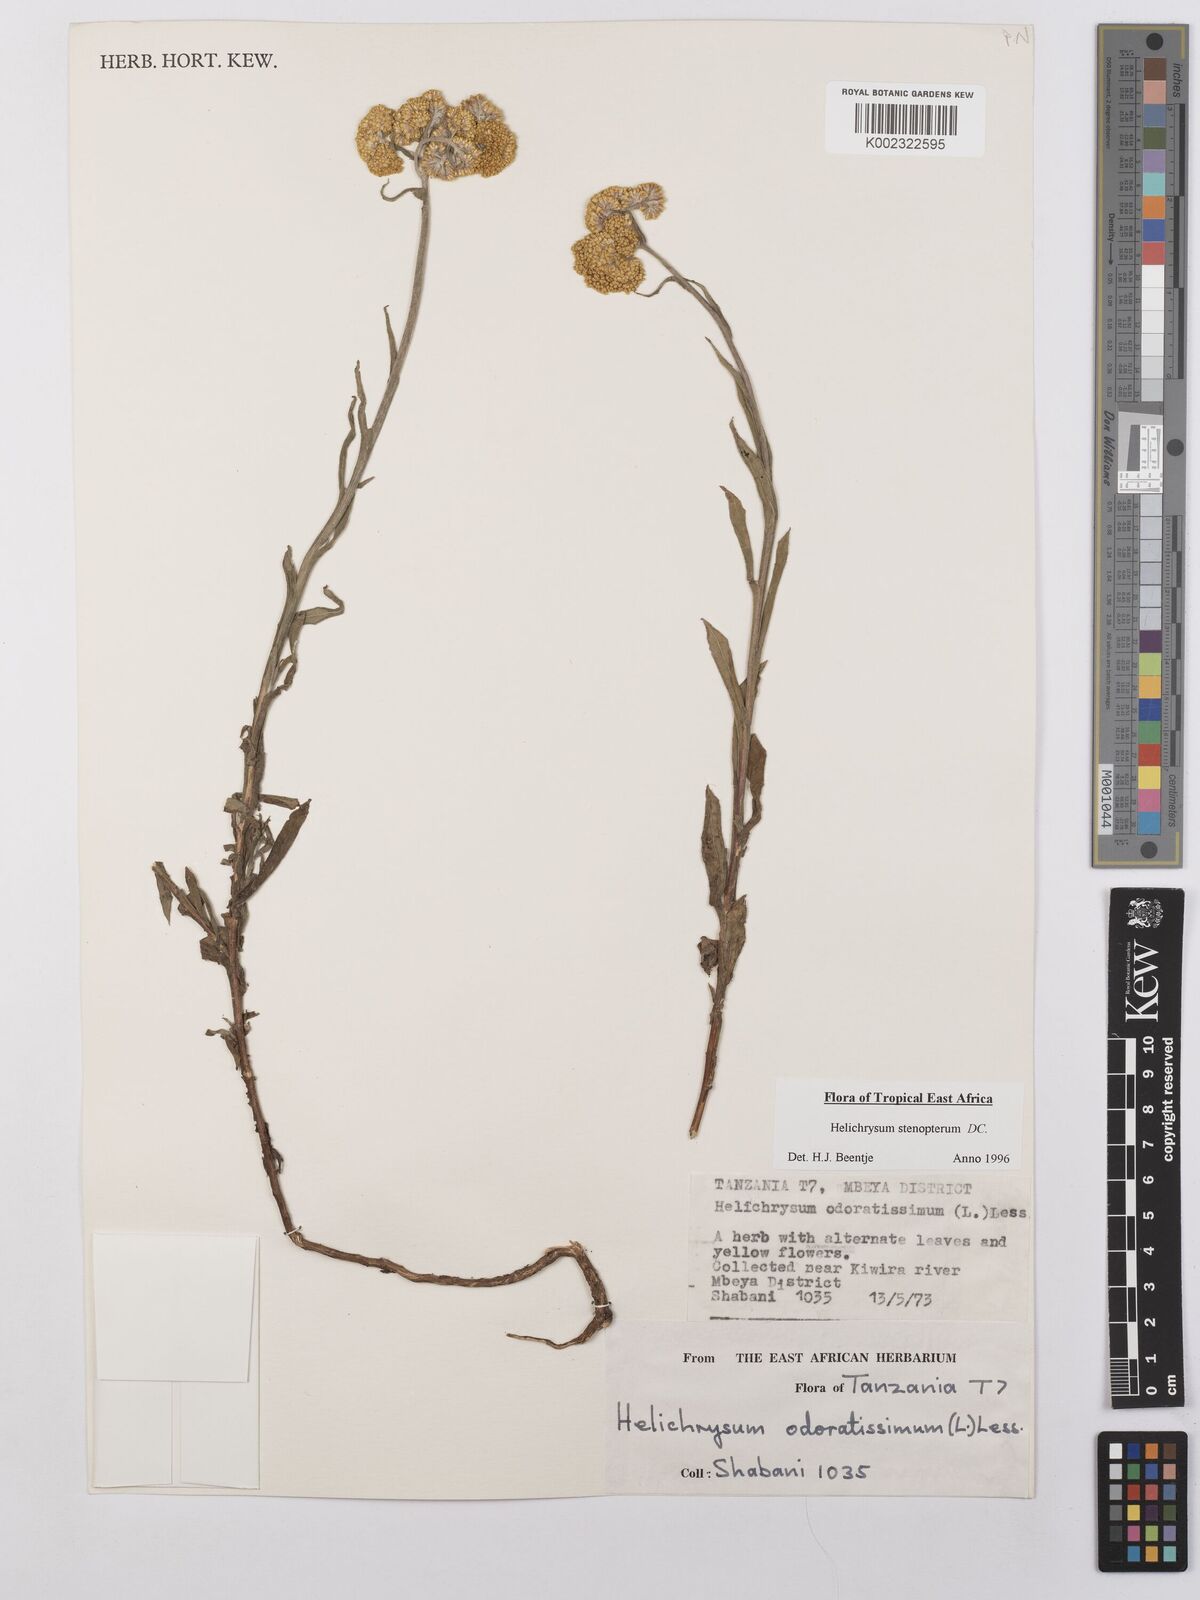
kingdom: Plantae
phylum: Tracheophyta
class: Magnoliopsida
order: Asterales
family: Asteraceae
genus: Helichrysum
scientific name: Helichrysum stenopterum
